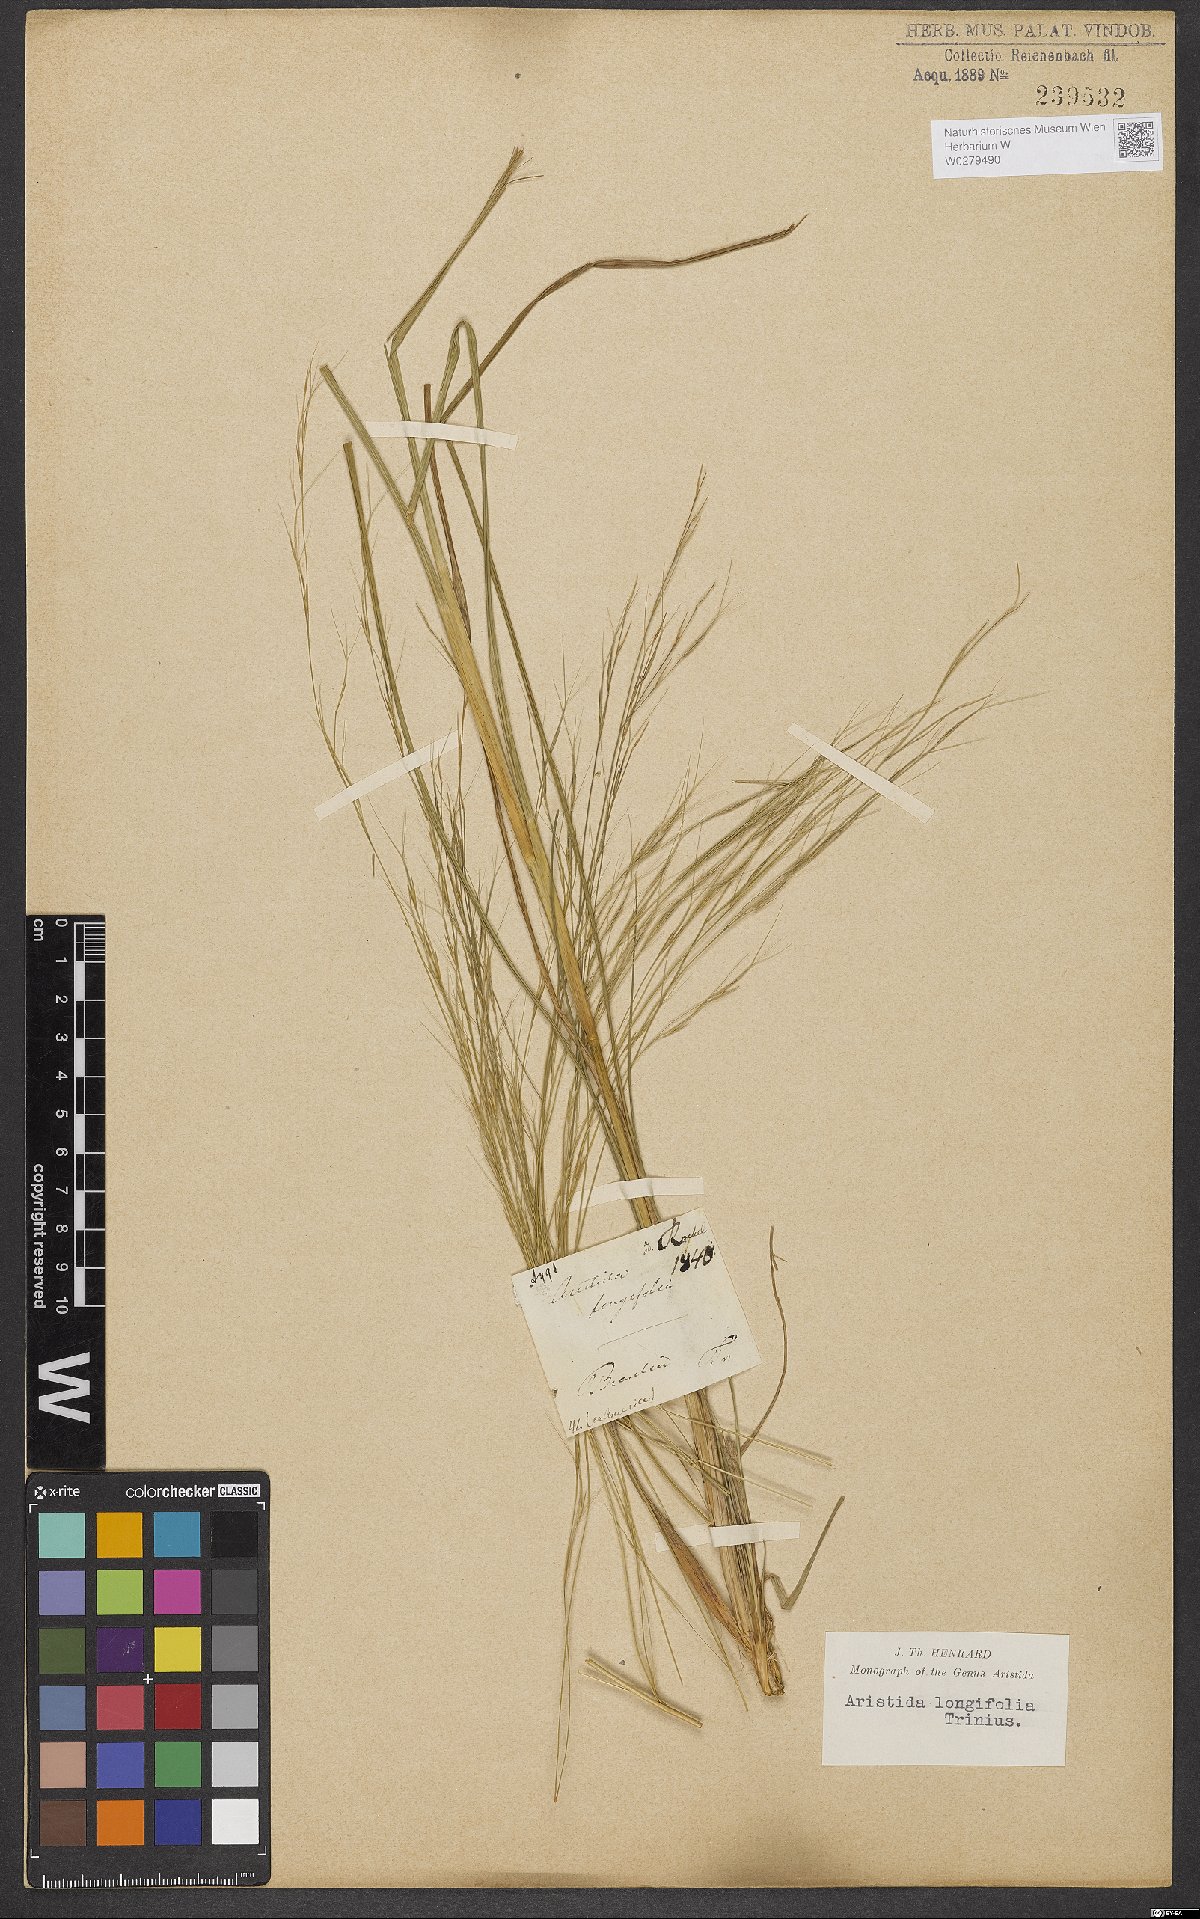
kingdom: Plantae
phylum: Tracheophyta
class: Liliopsida
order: Poales
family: Poaceae
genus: Aristida
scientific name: Aristida longifolia
